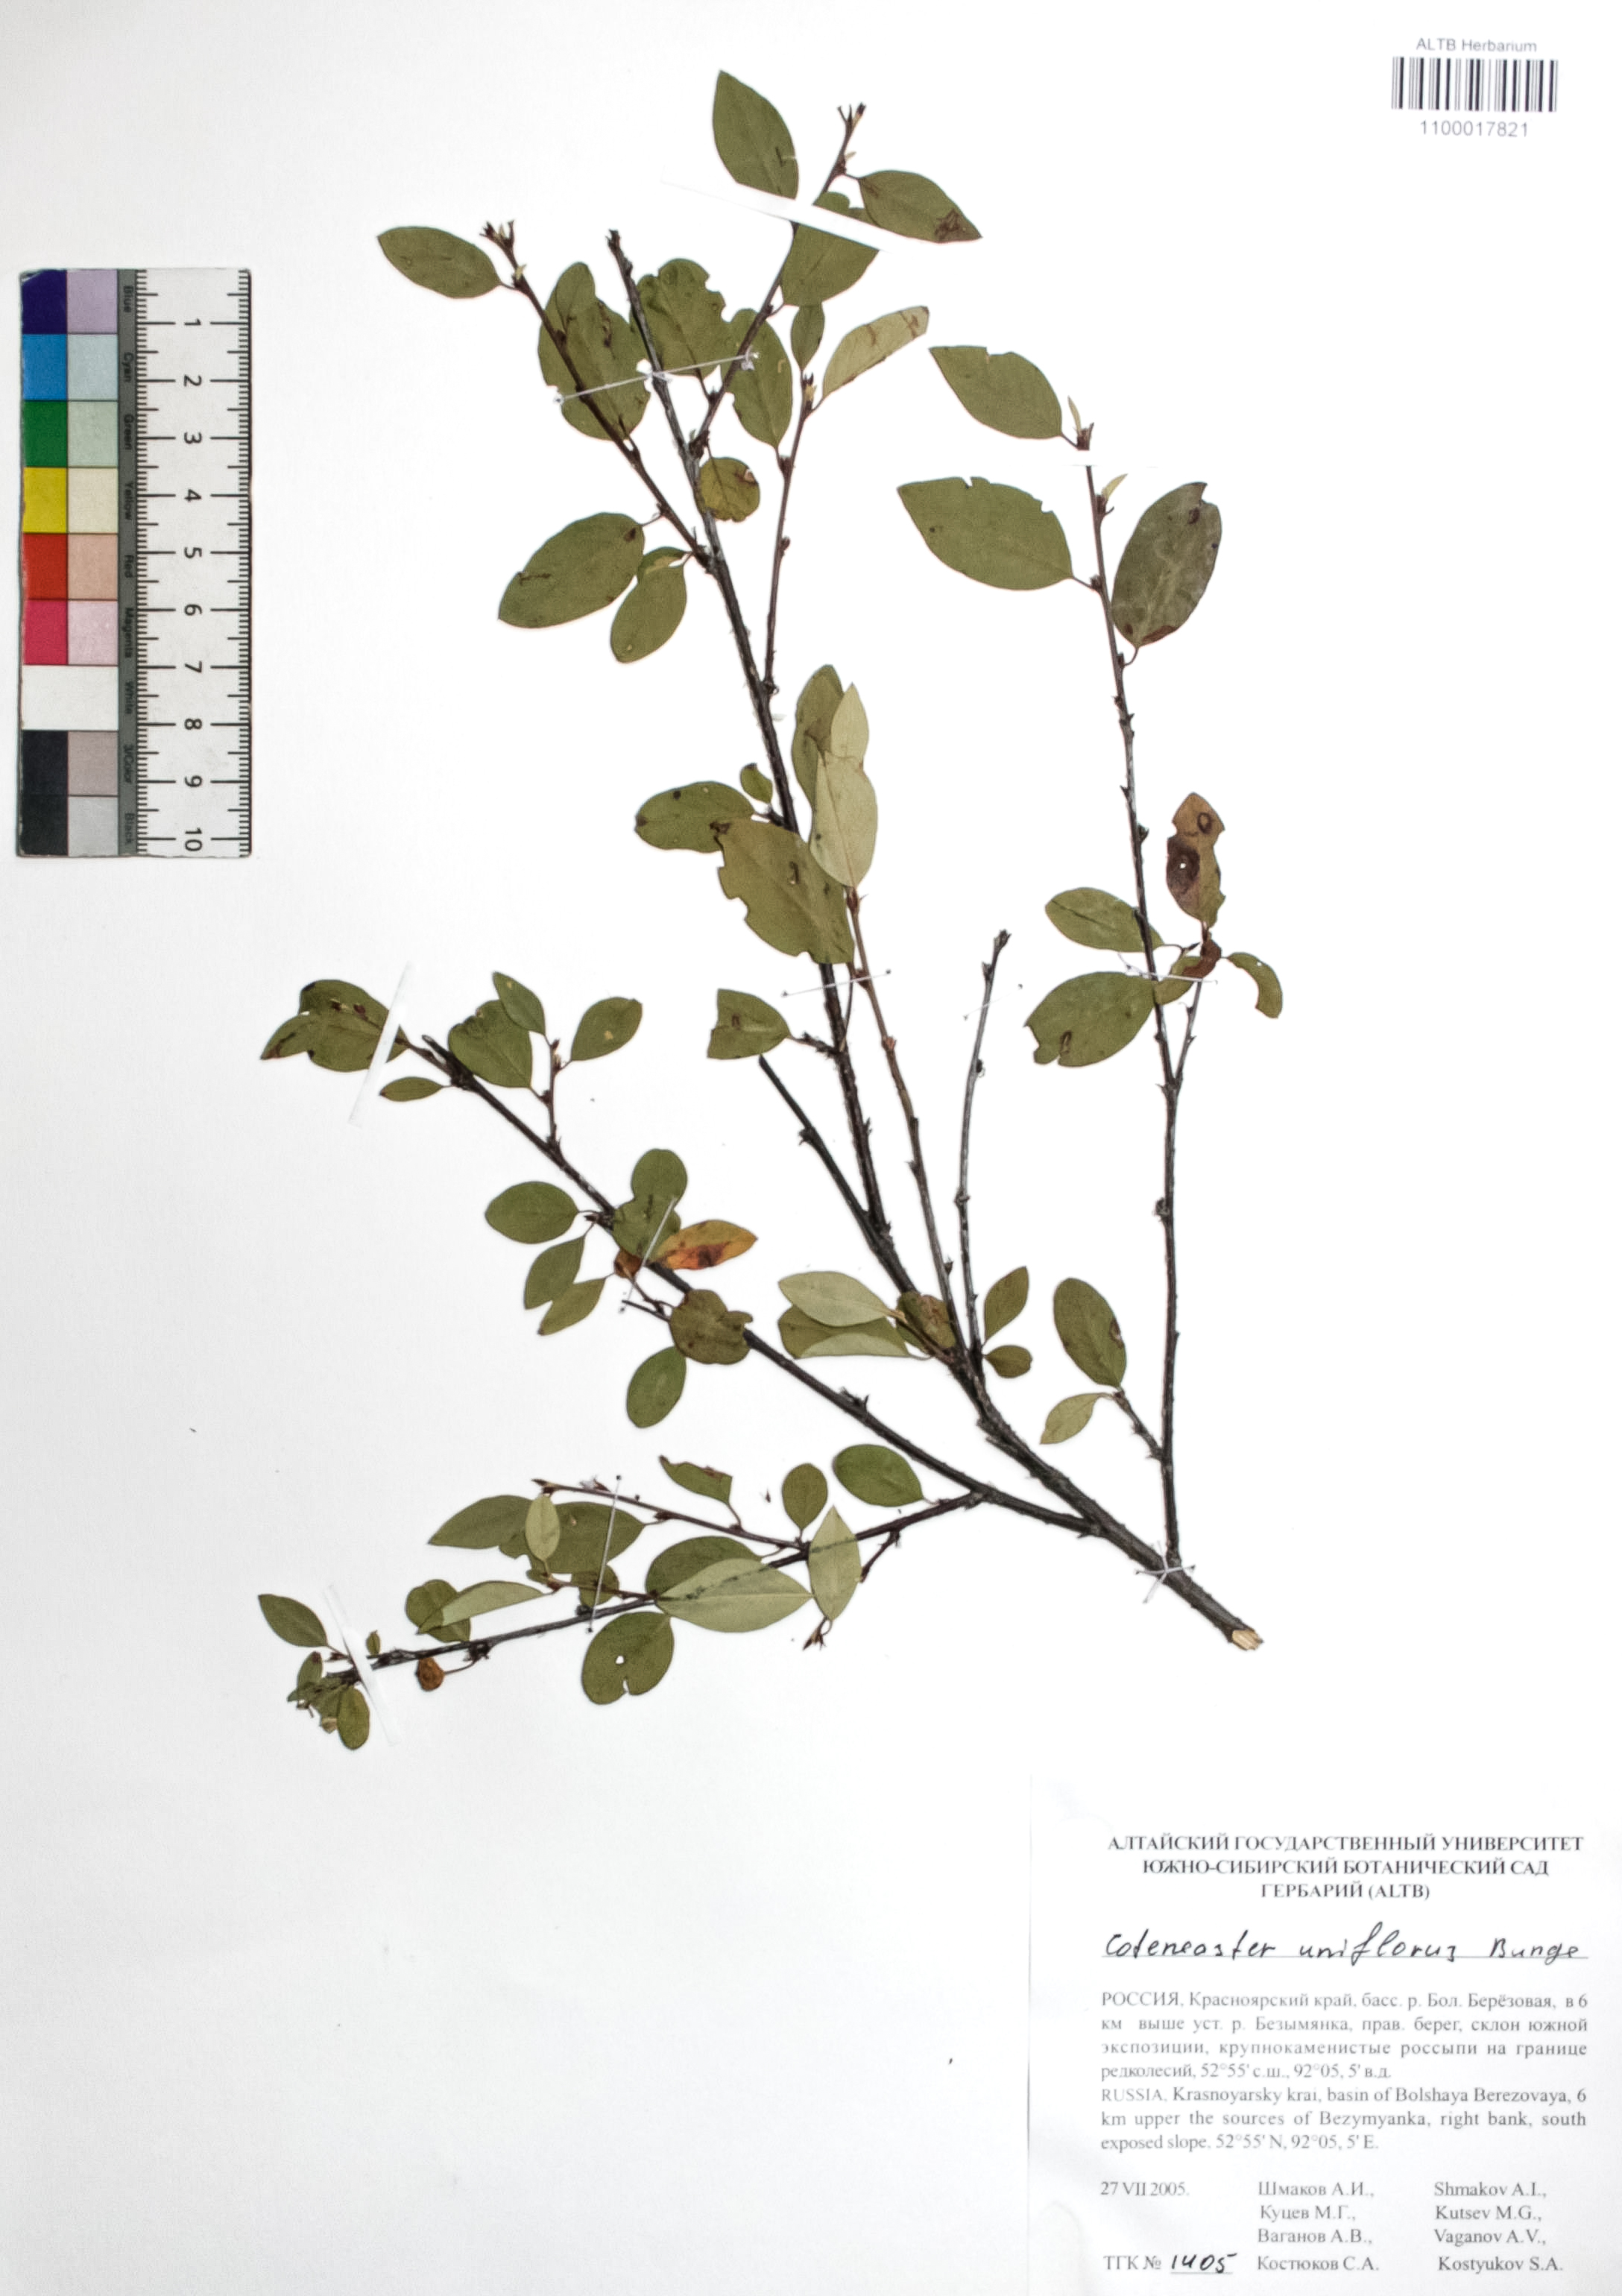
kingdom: Plantae
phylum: Tracheophyta
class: Magnoliopsida
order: Rosales
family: Rosaceae
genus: Cotoneaster
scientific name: Cotoneaster uniflorus
